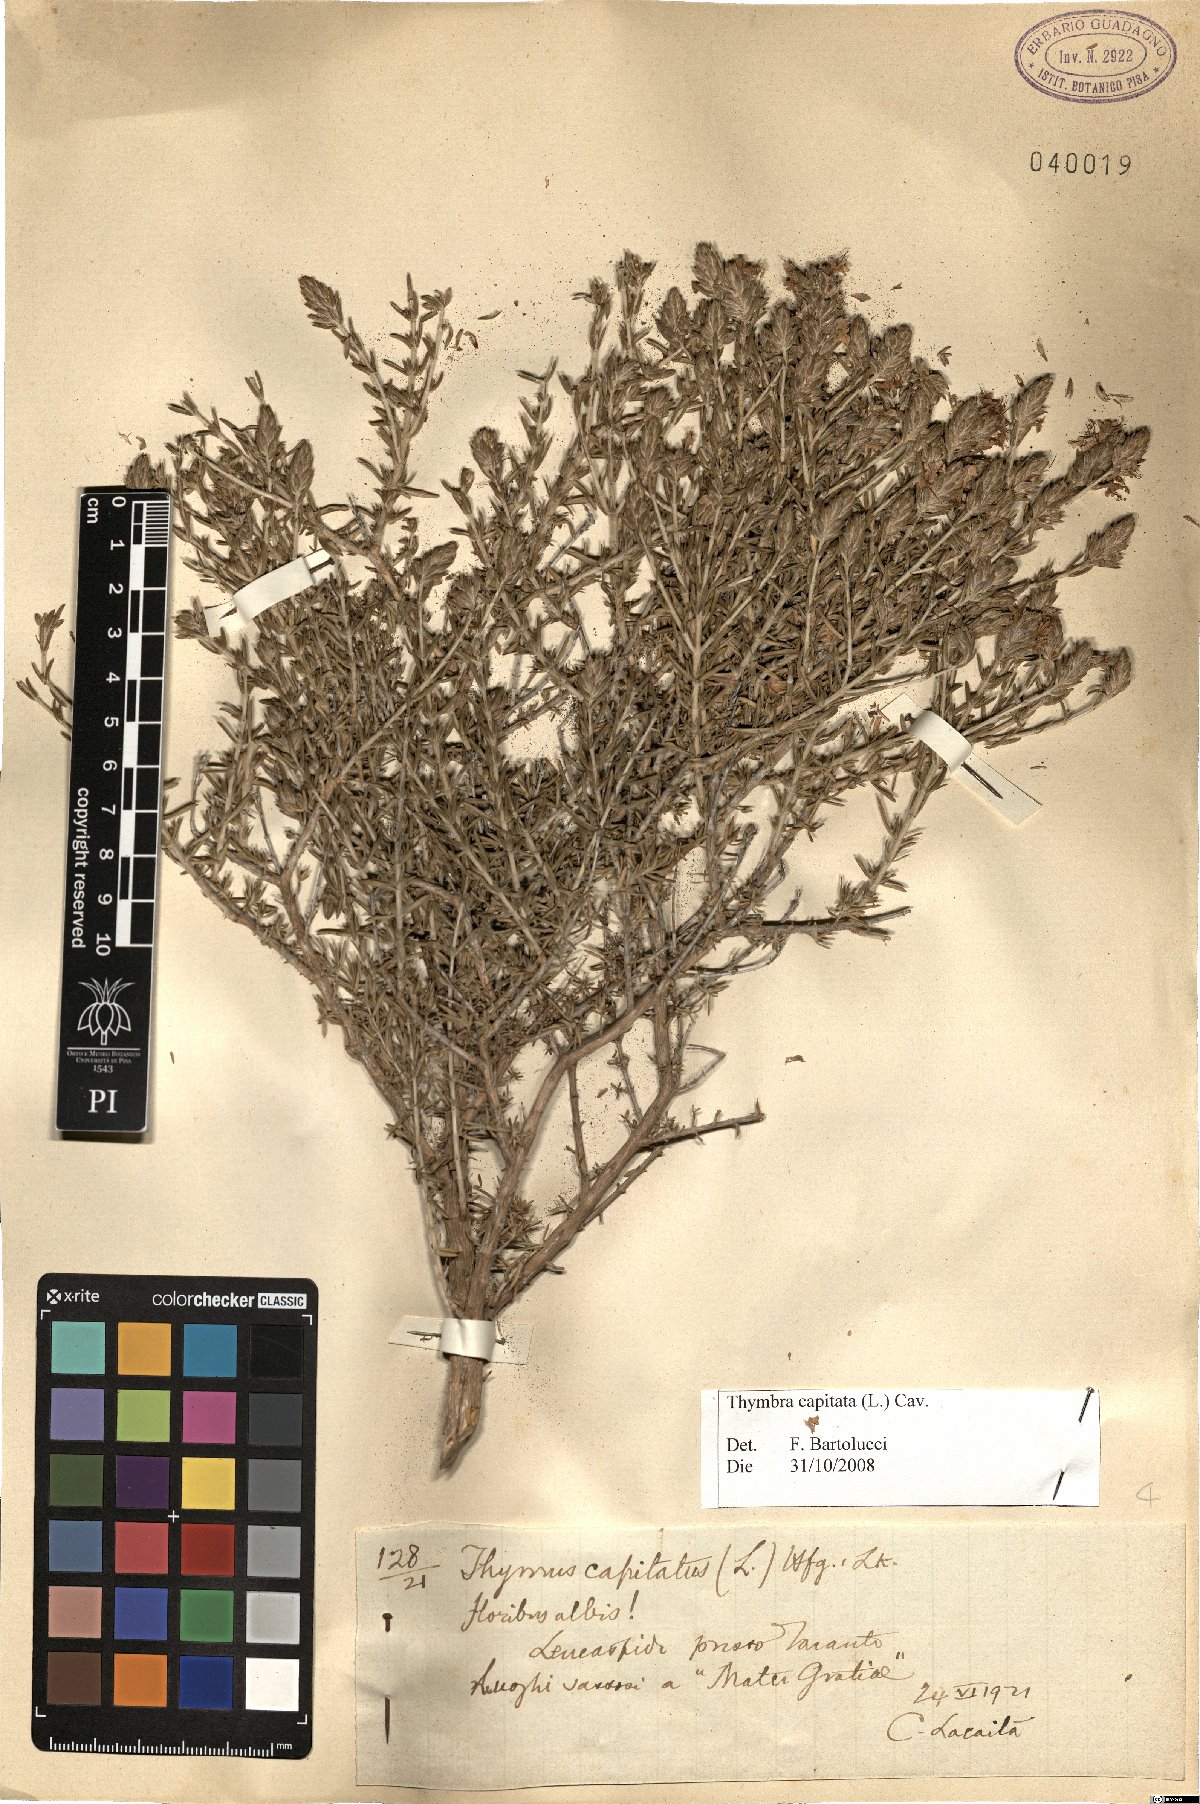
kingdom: Plantae
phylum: Tracheophyta
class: Magnoliopsida
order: Lamiales
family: Lamiaceae
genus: Thymbra
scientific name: Thymbra capitata
